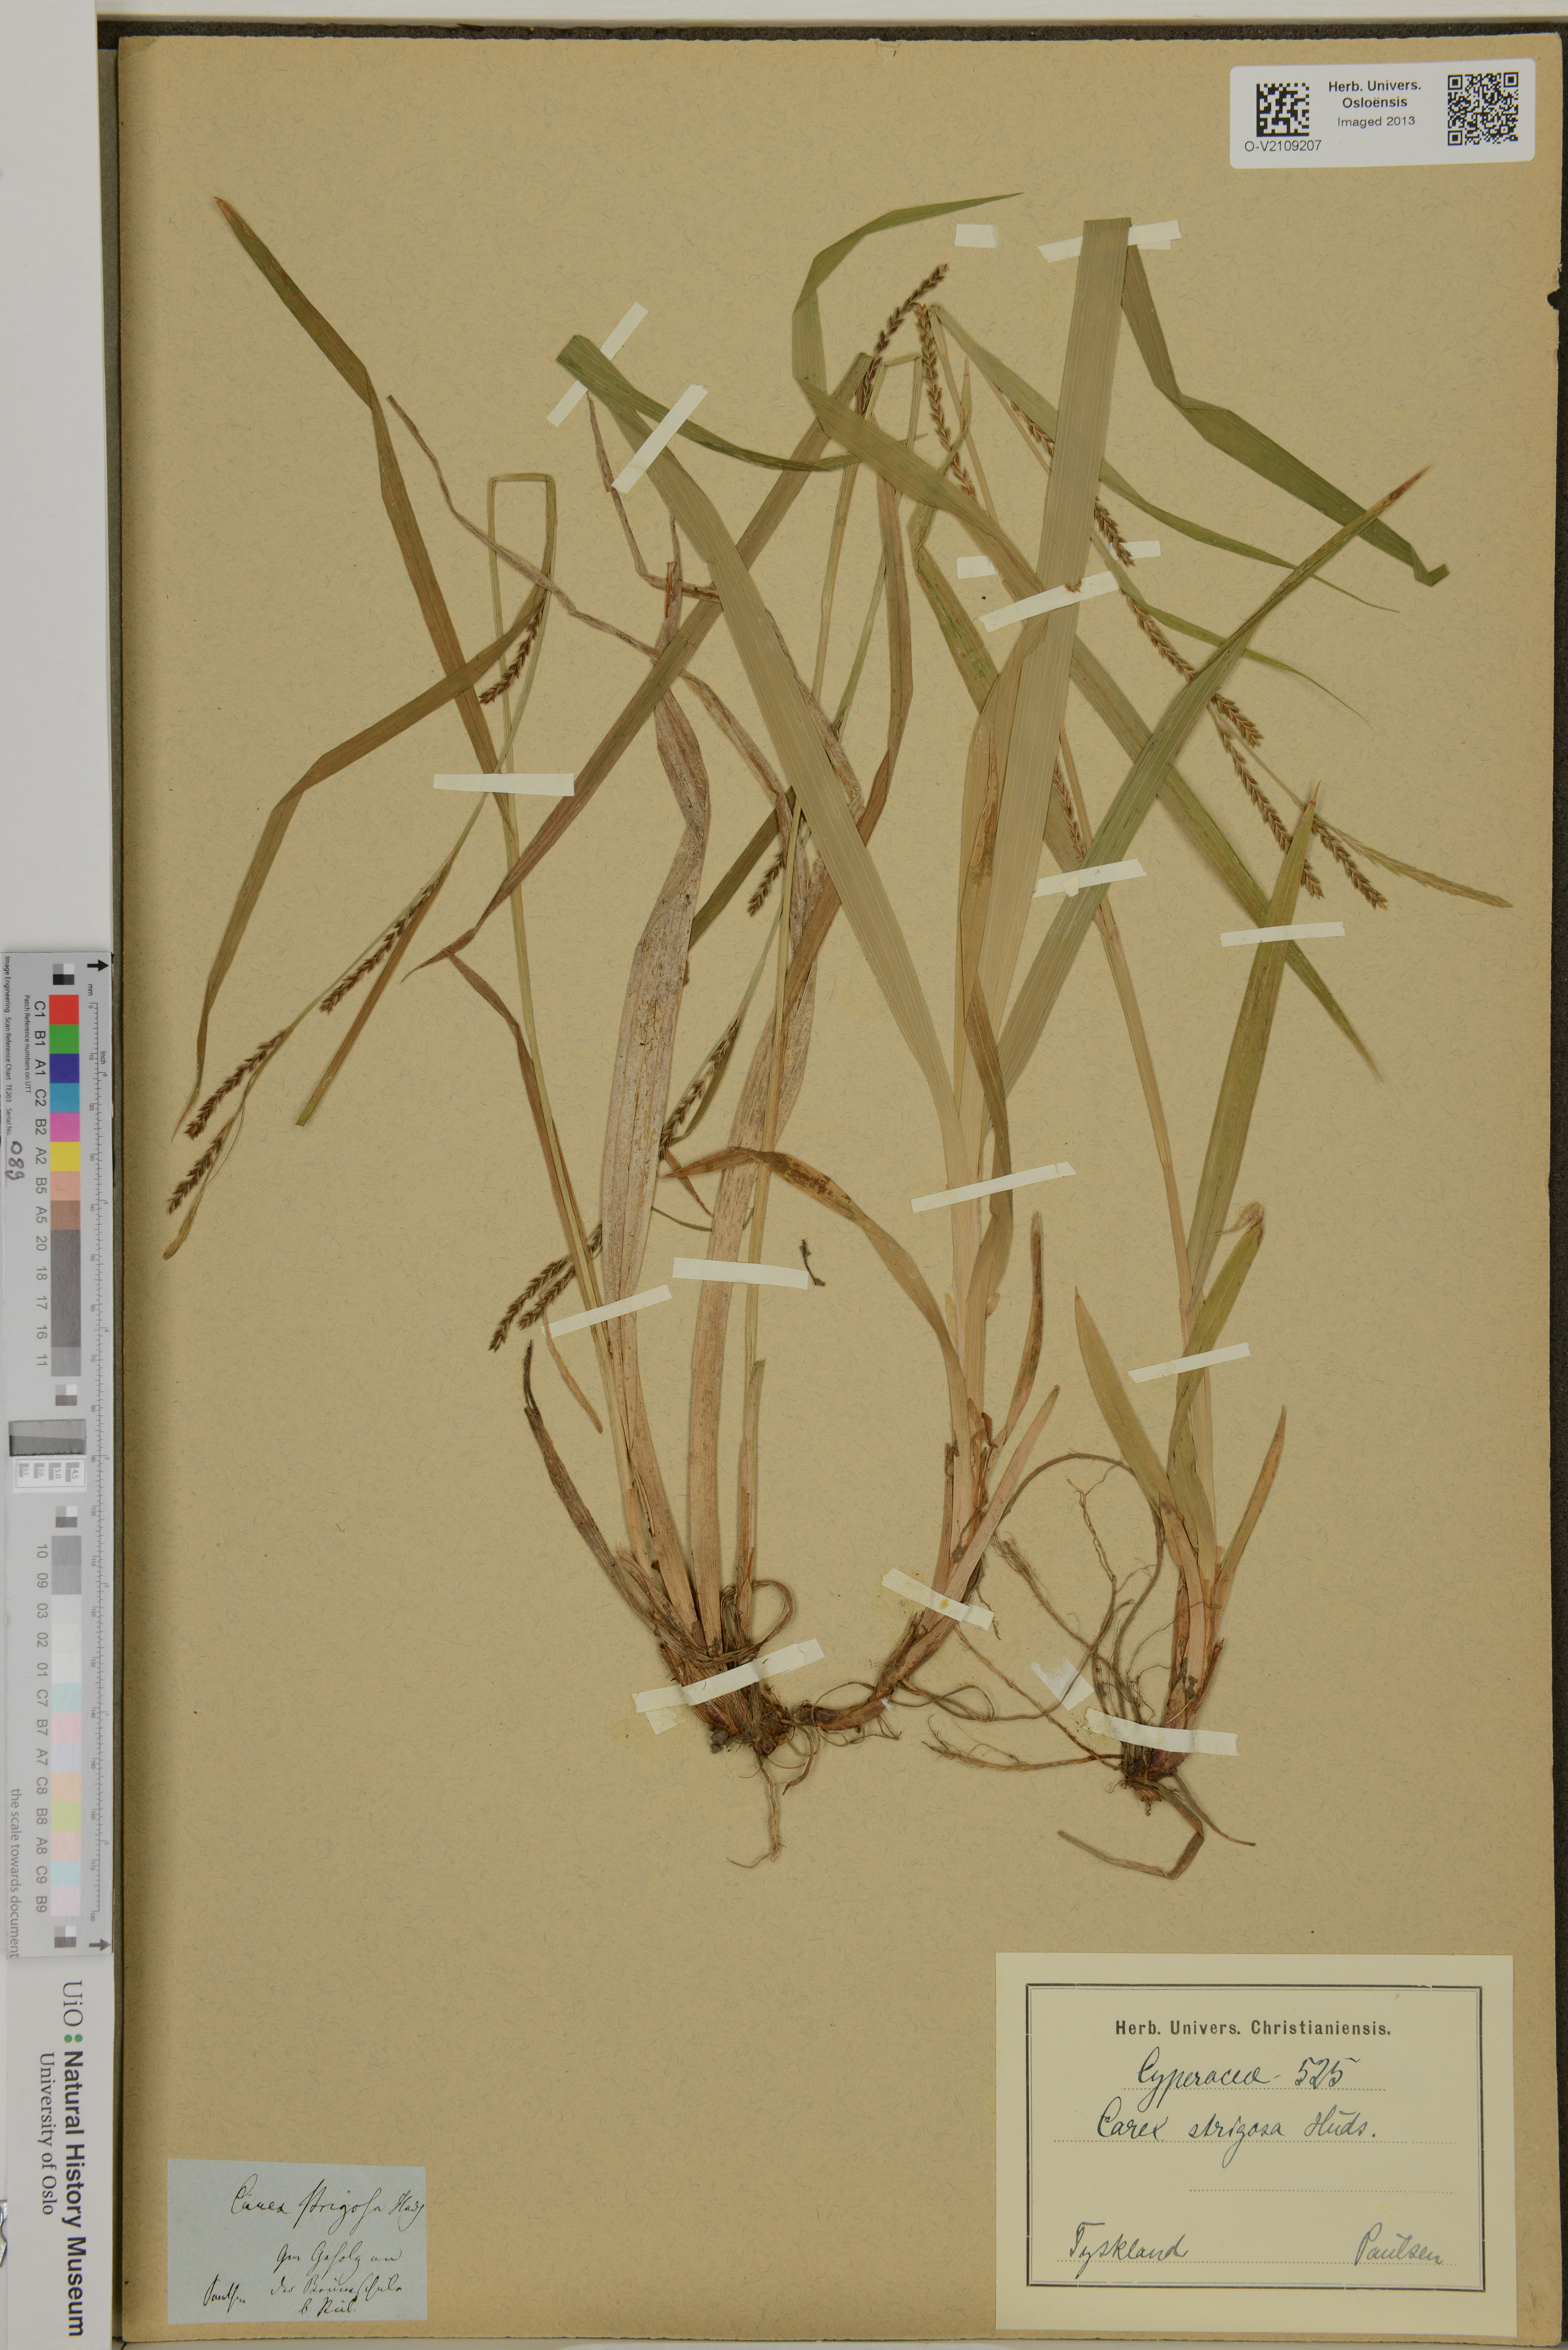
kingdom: Plantae
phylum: Tracheophyta
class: Liliopsida
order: Poales
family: Cyperaceae
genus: Carex
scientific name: Carex strigosa
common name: Thin-spiked wood-sedge
